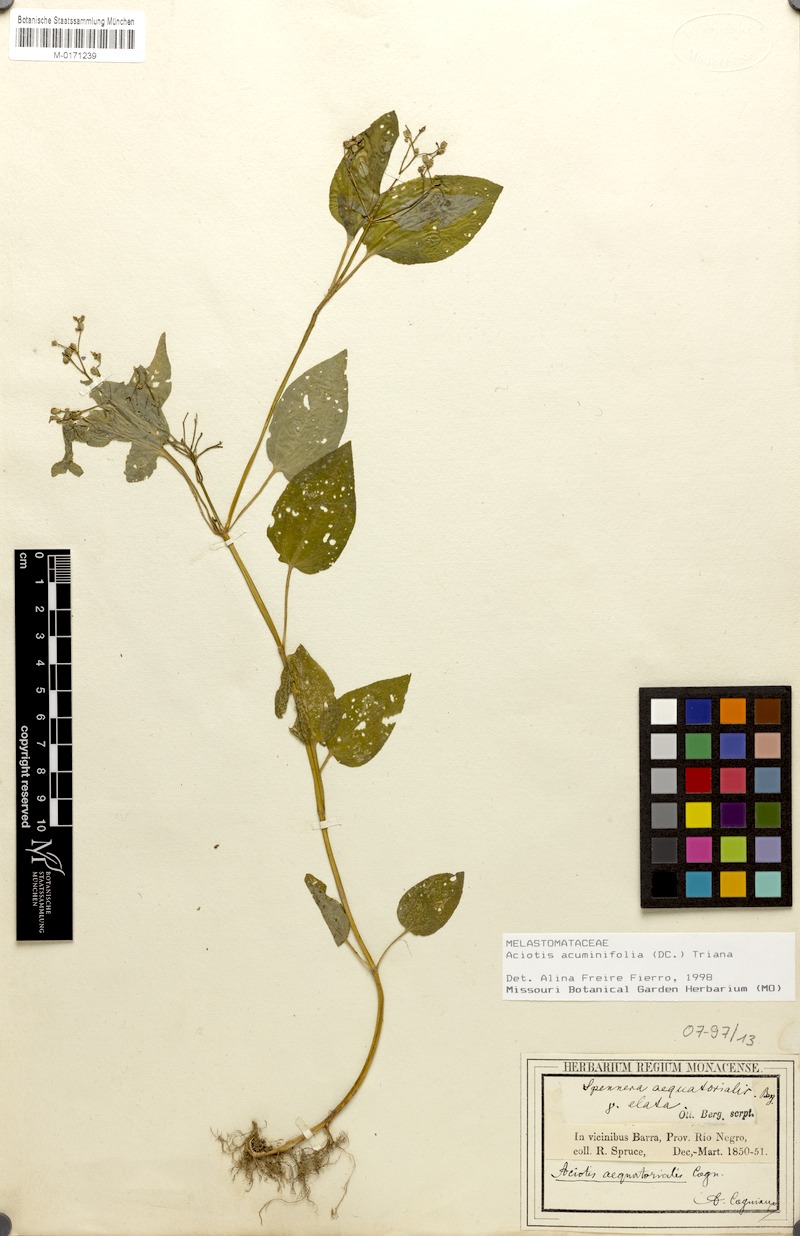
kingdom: Plantae
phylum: Tracheophyta
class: Magnoliopsida
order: Myrtales
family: Melastomataceae
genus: Aciotis
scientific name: Aciotis acuminifolia
